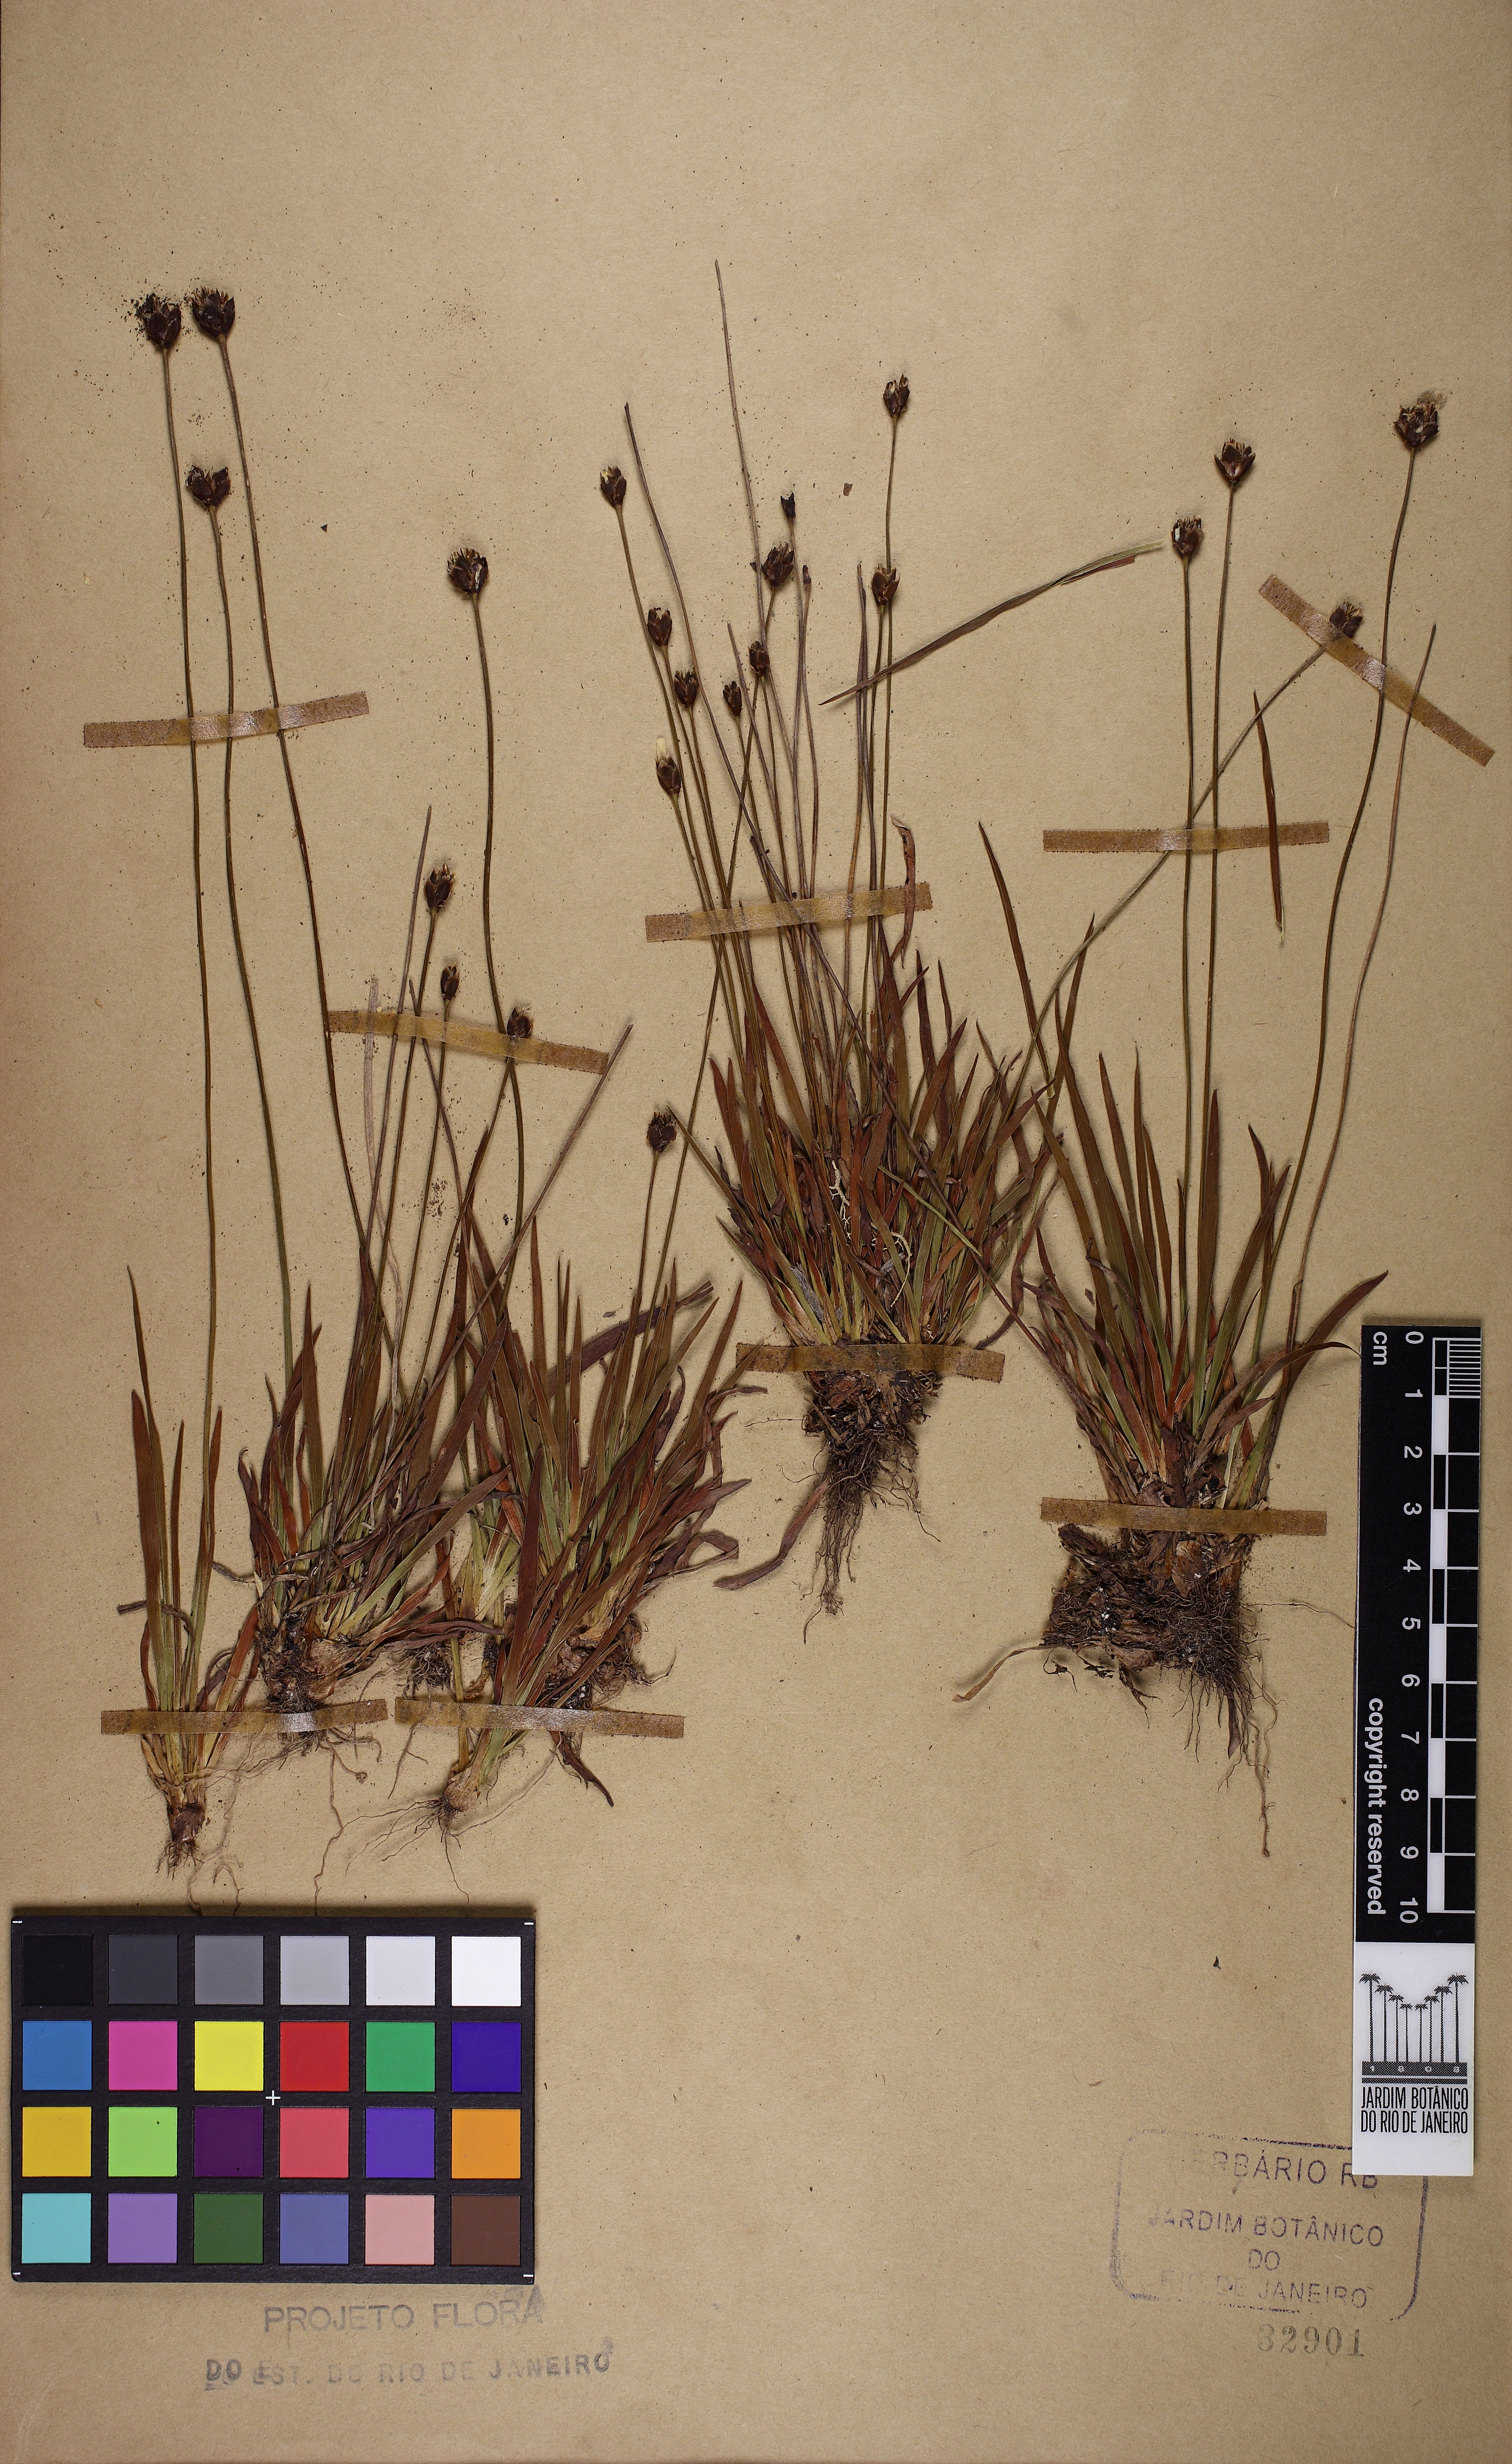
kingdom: Plantae
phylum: Tracheophyta
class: Liliopsida
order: Poales
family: Xyridaceae
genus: Xyris
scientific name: Xyris fusca
